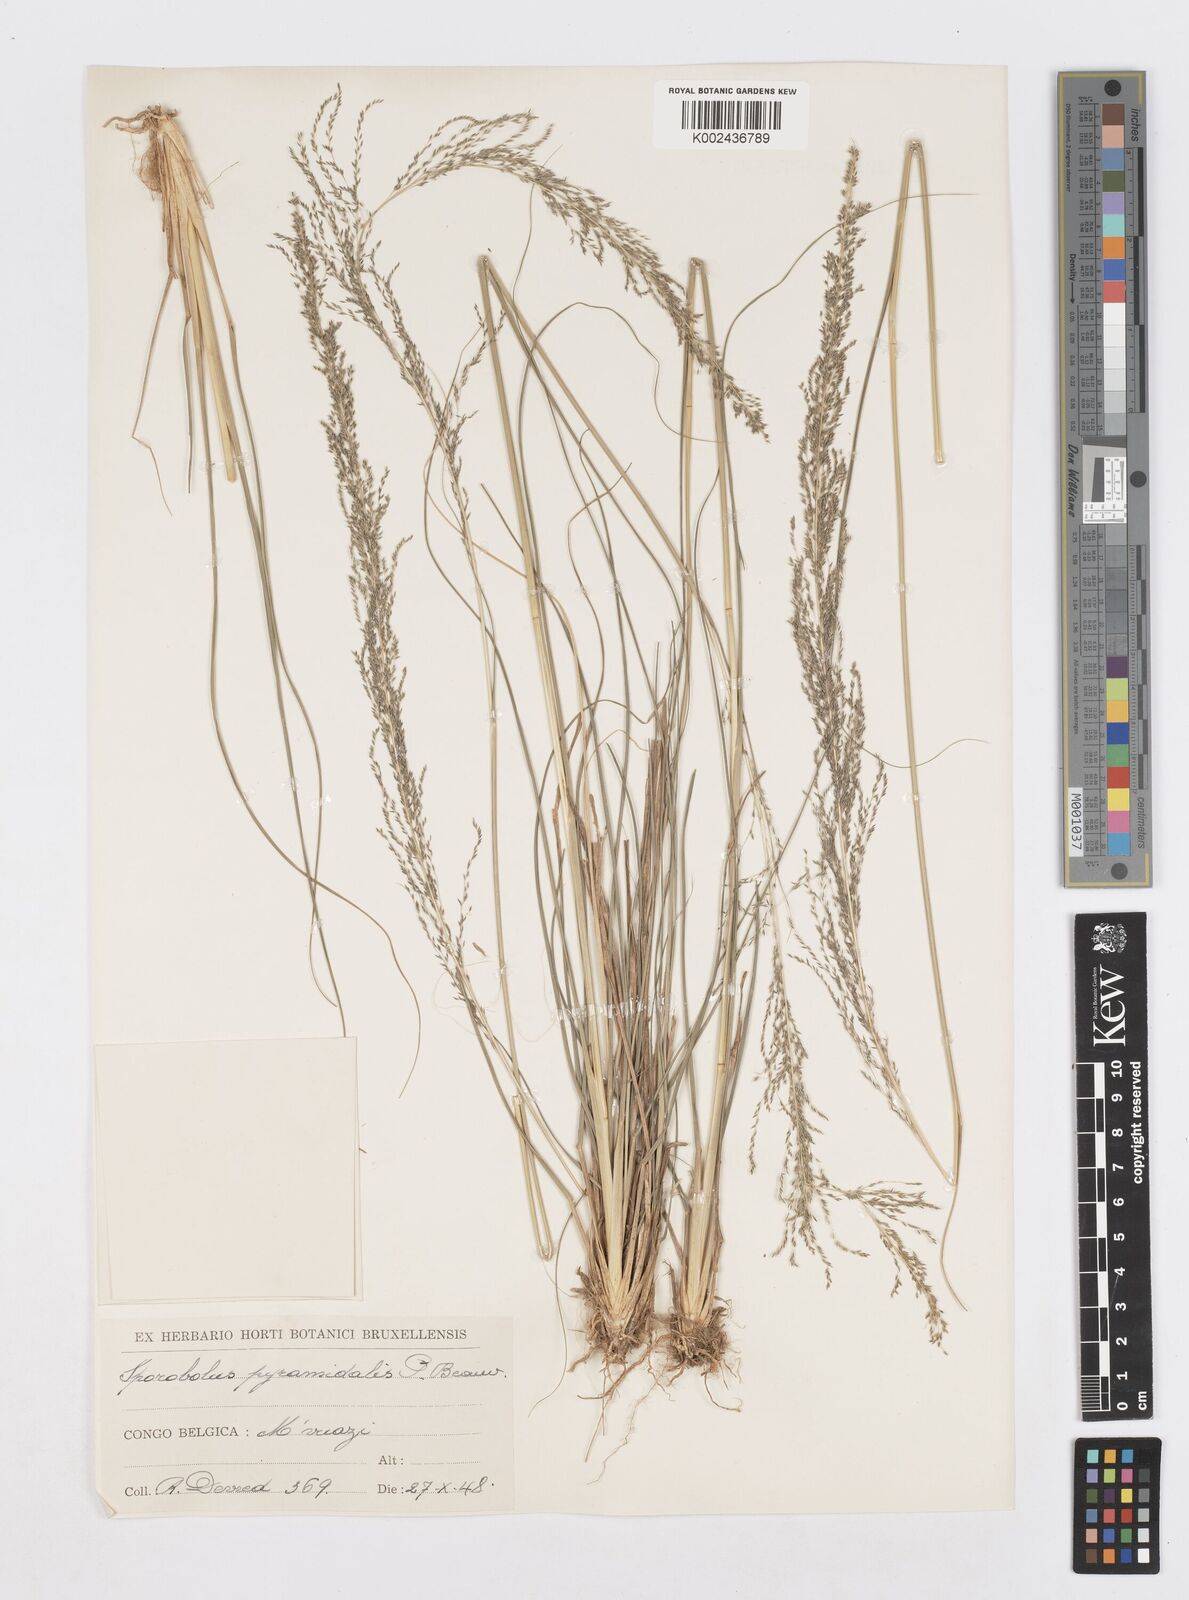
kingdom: Plantae
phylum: Tracheophyta
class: Liliopsida
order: Poales
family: Poaceae
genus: Sporobolus
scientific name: Sporobolus pyramidalis
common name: West indian dropseed
